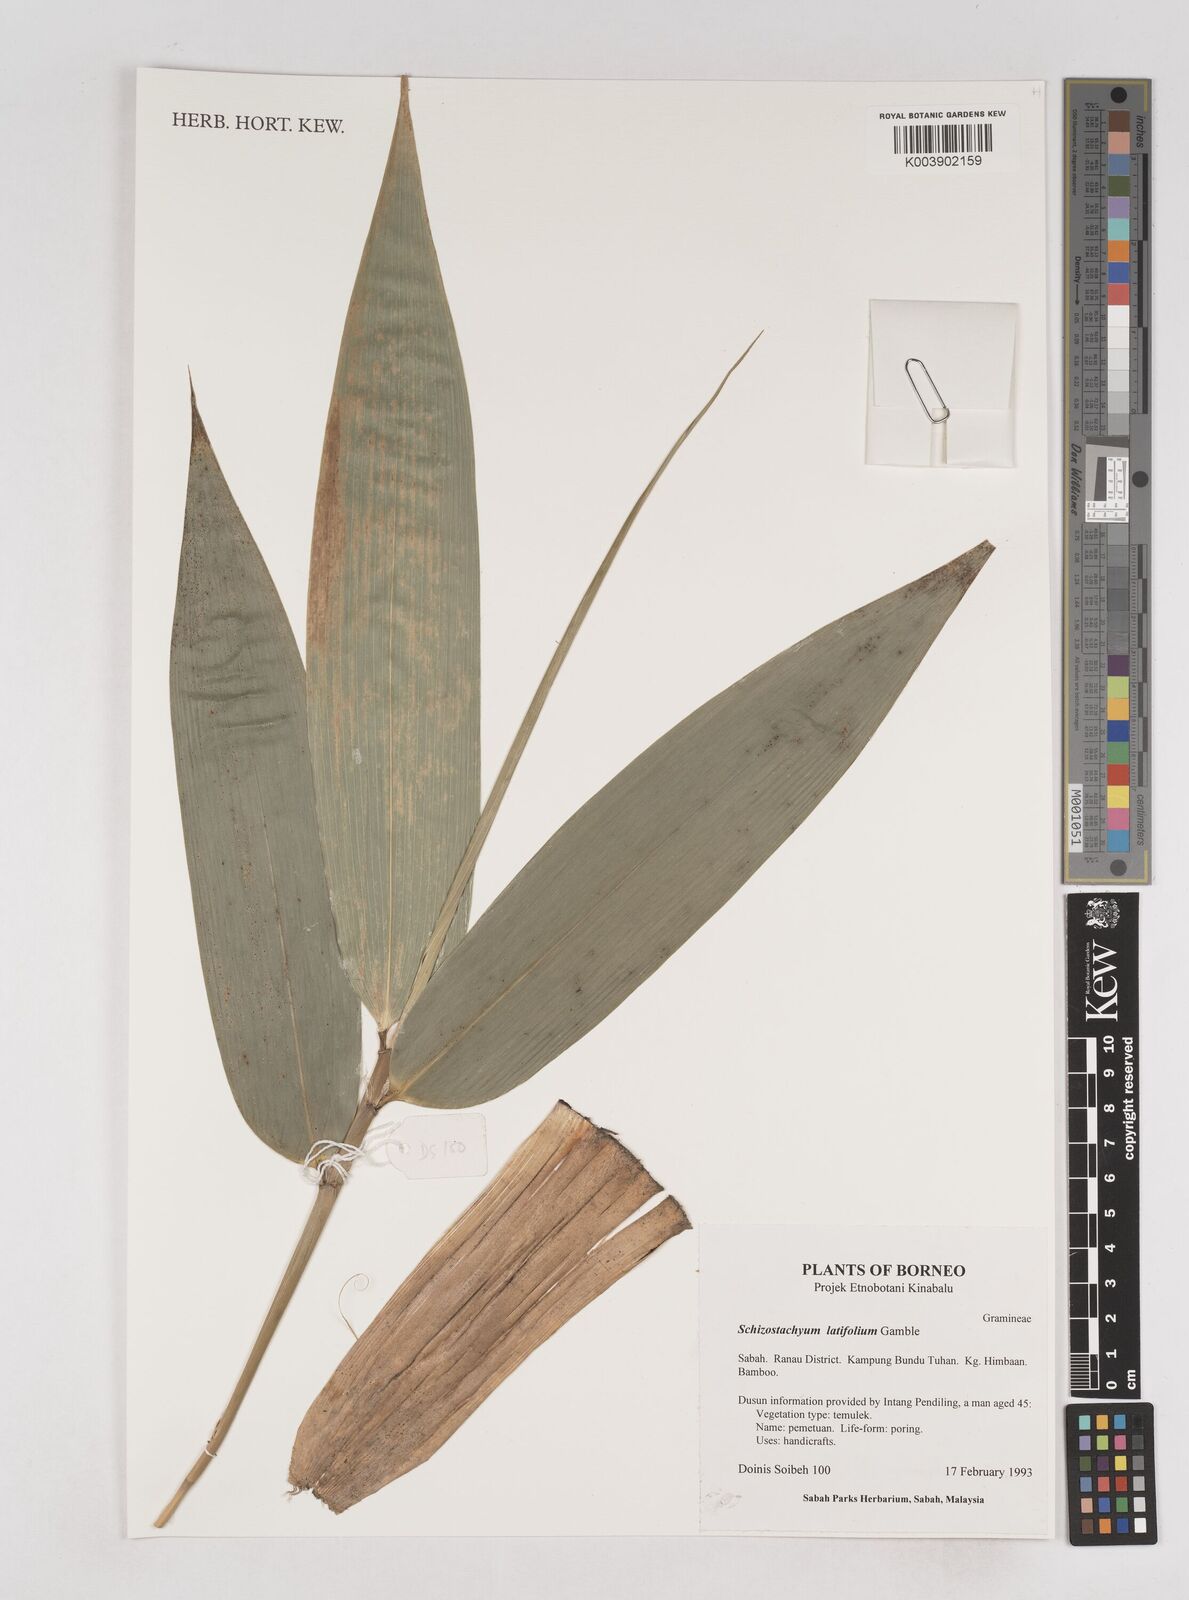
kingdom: Plantae
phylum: Tracheophyta
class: Liliopsida
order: Poales
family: Poaceae
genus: Schizostachyum
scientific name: Schizostachyum latifolium
